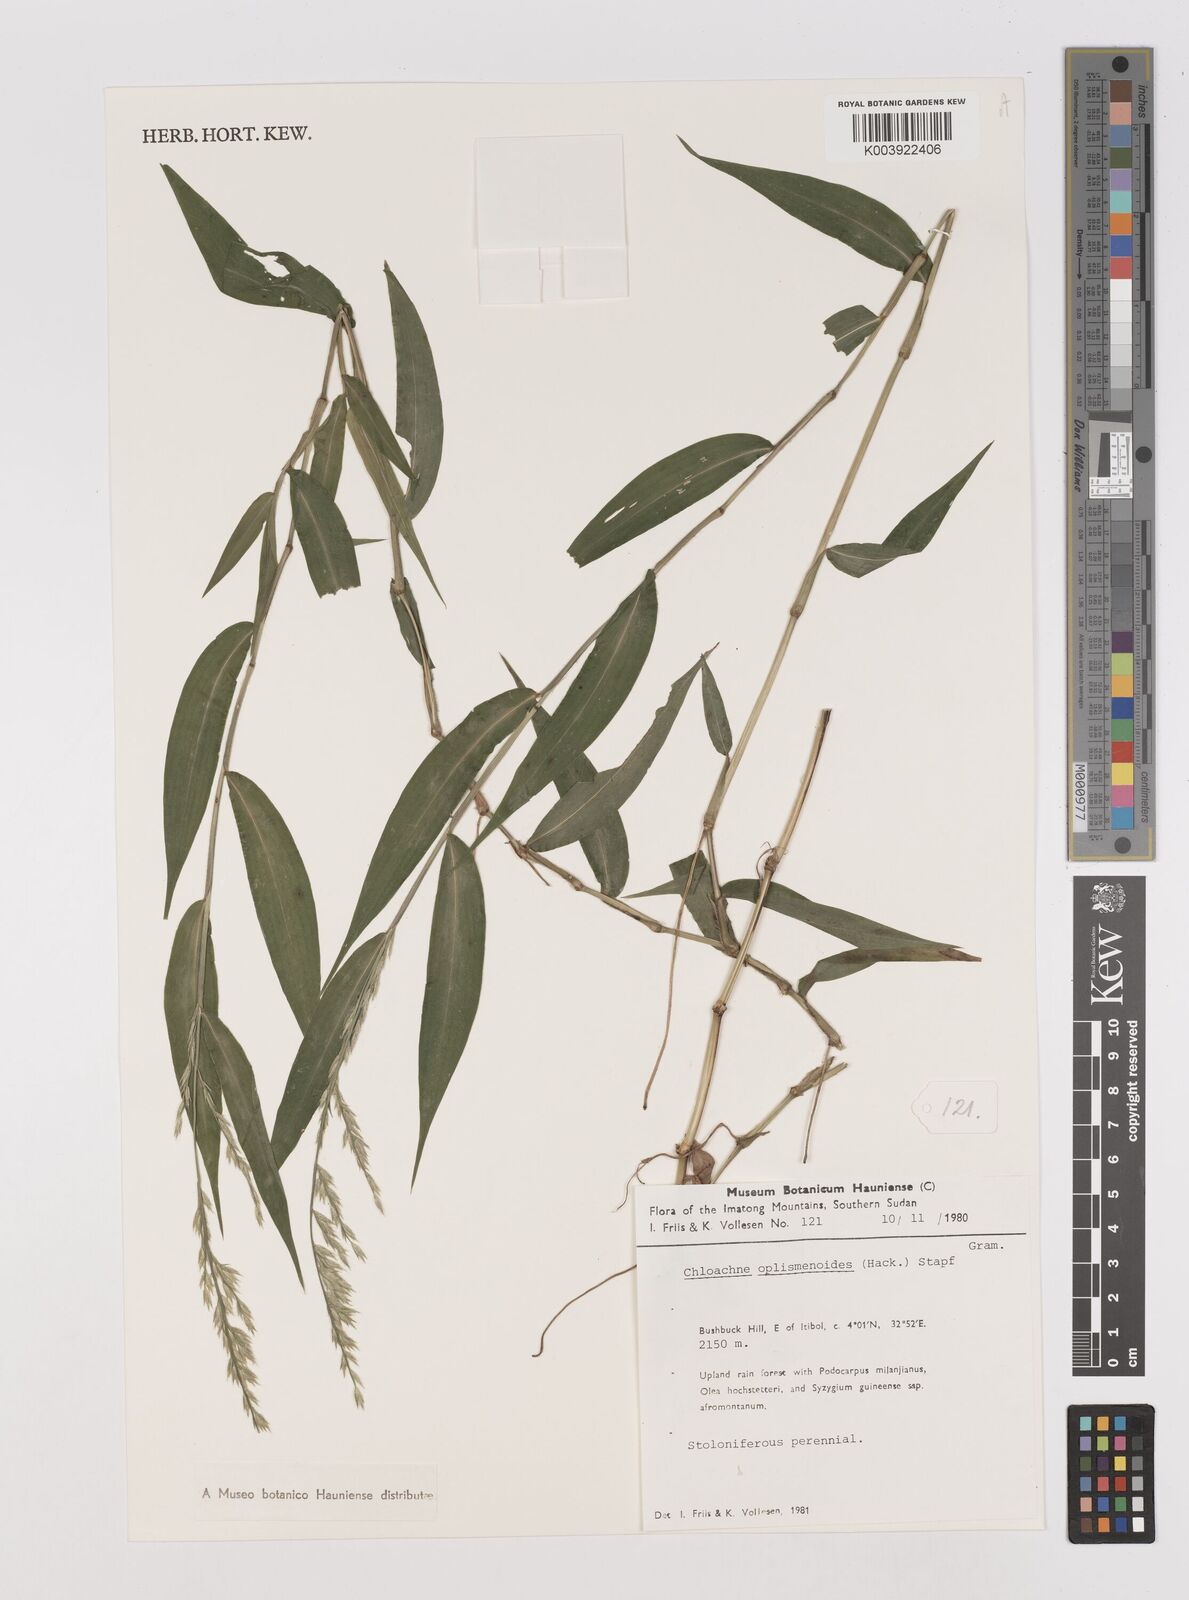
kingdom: Plantae
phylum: Tracheophyta
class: Liliopsida
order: Poales
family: Poaceae
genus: Poecilostachys
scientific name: Poecilostachys oplismenoides
